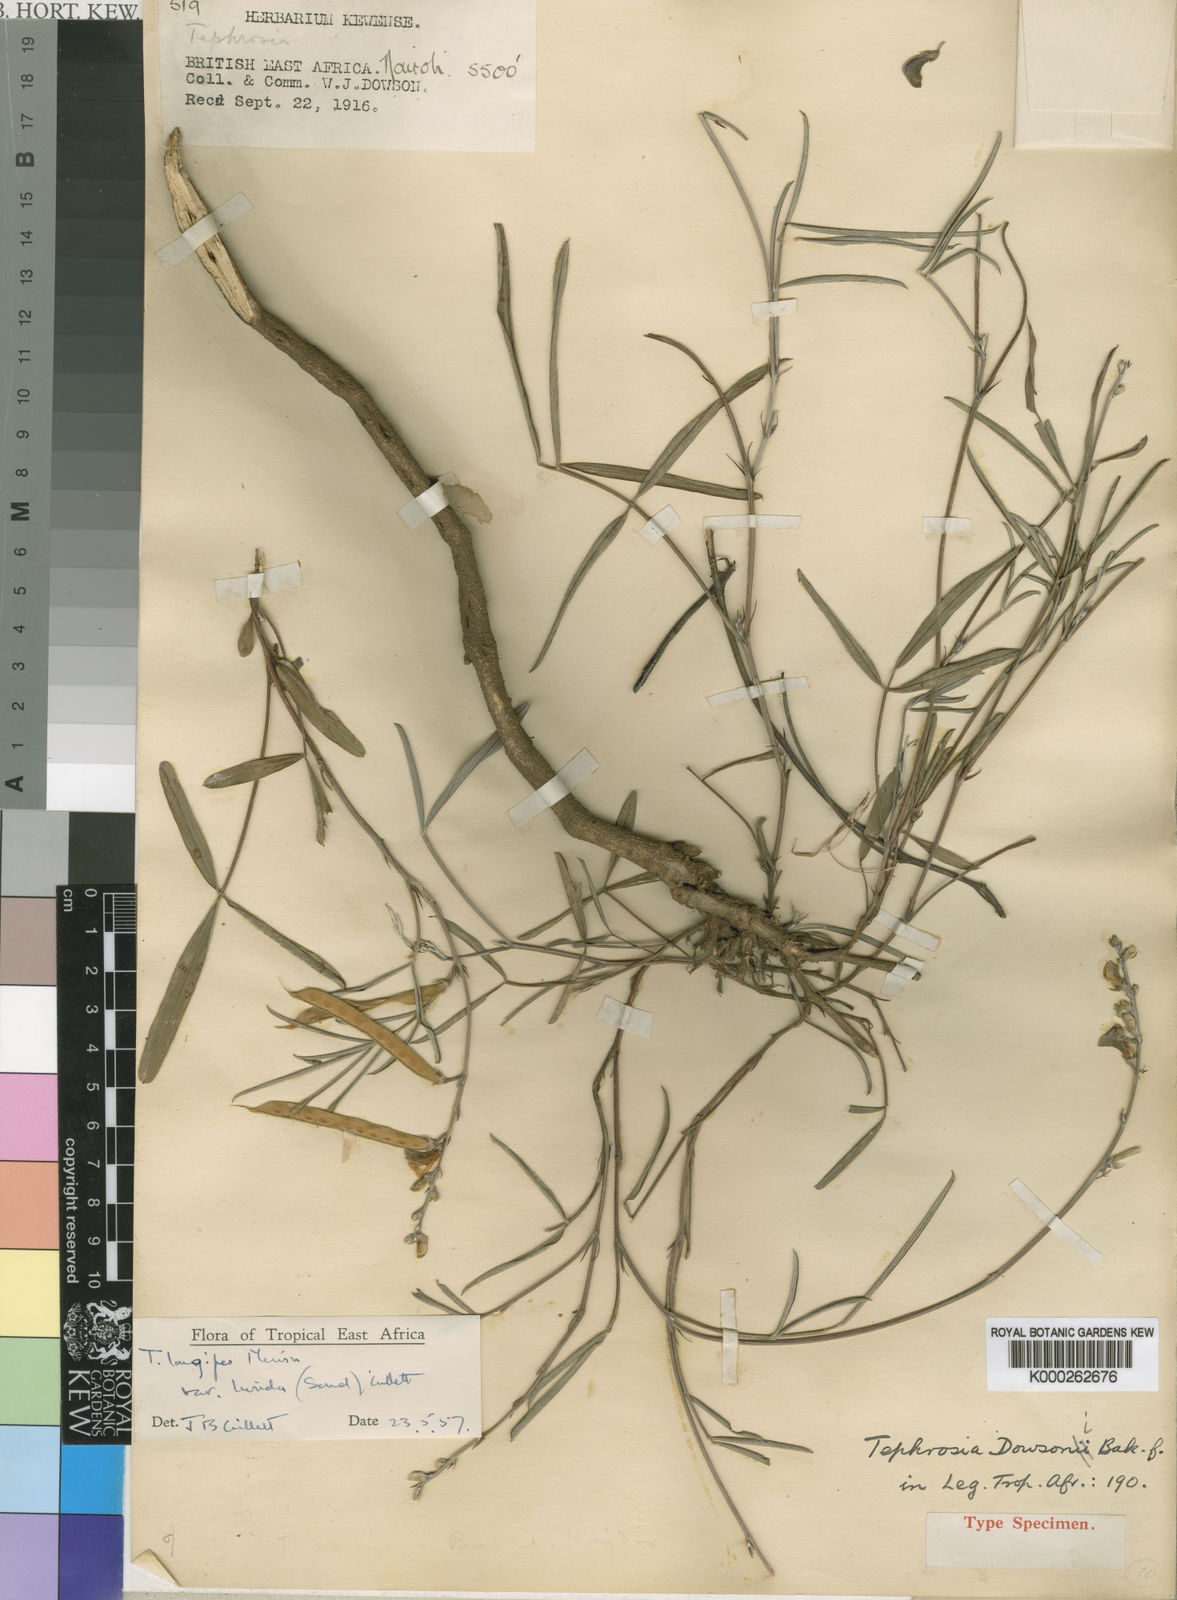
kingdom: Plantae
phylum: Tracheophyta
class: Magnoliopsida
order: Fabales
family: Fabaceae
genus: Tephrosia
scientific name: Tephrosia longipes
